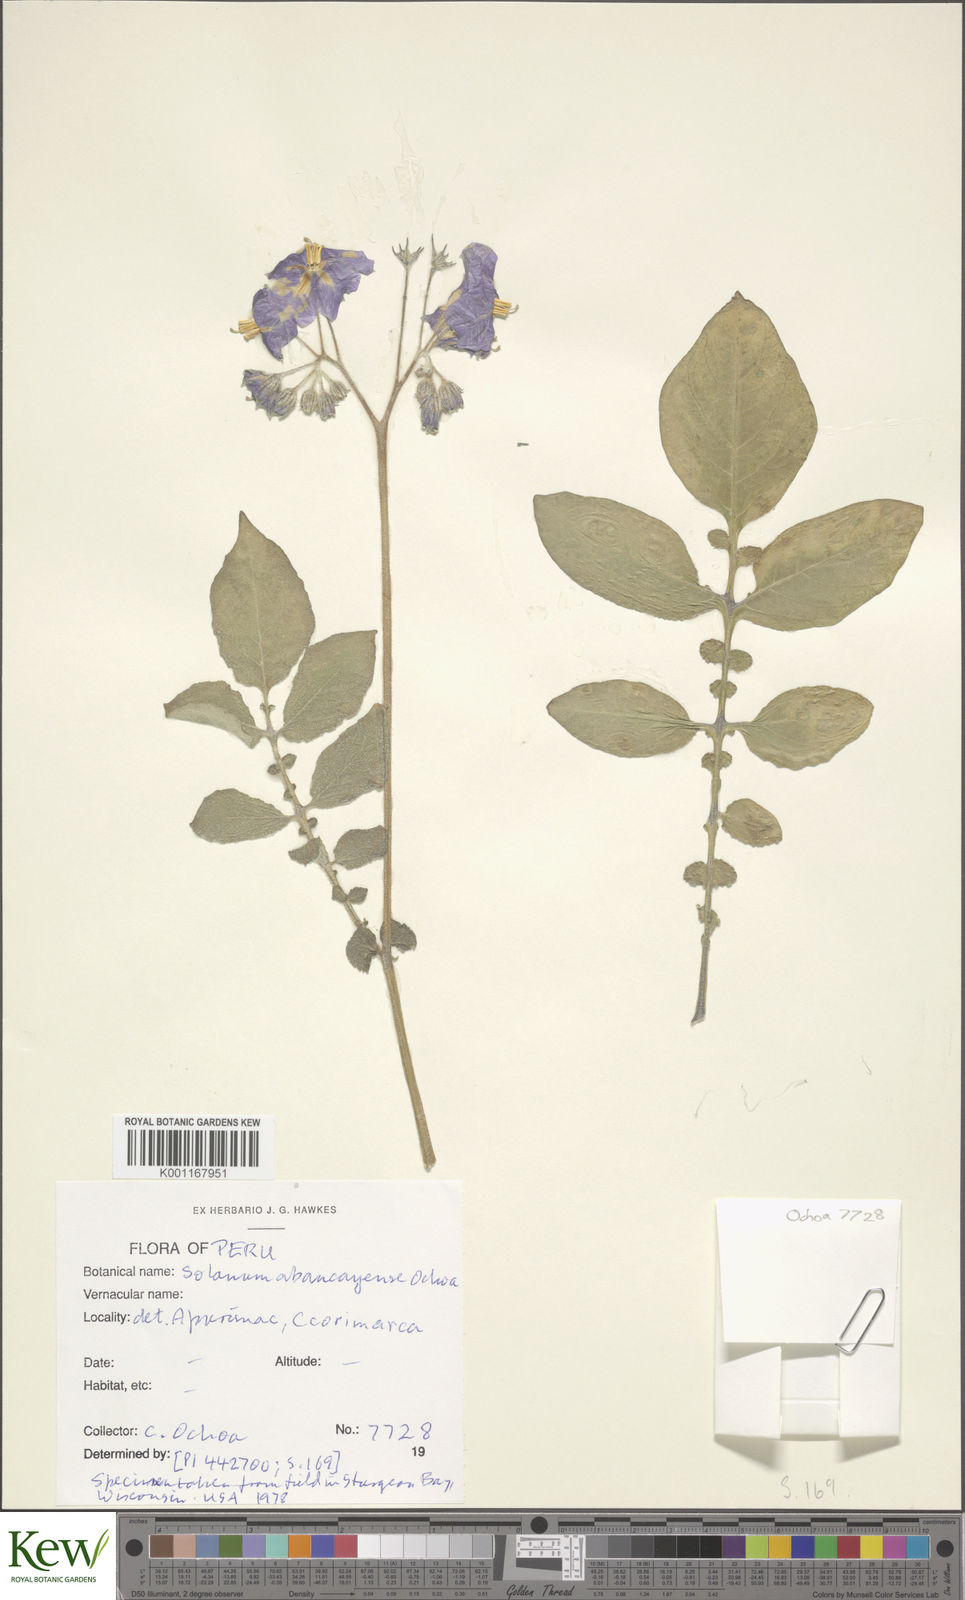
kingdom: Plantae
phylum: Tracheophyta
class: Magnoliopsida
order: Solanales
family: Solanaceae
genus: Solanum
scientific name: Solanum brevicaule
